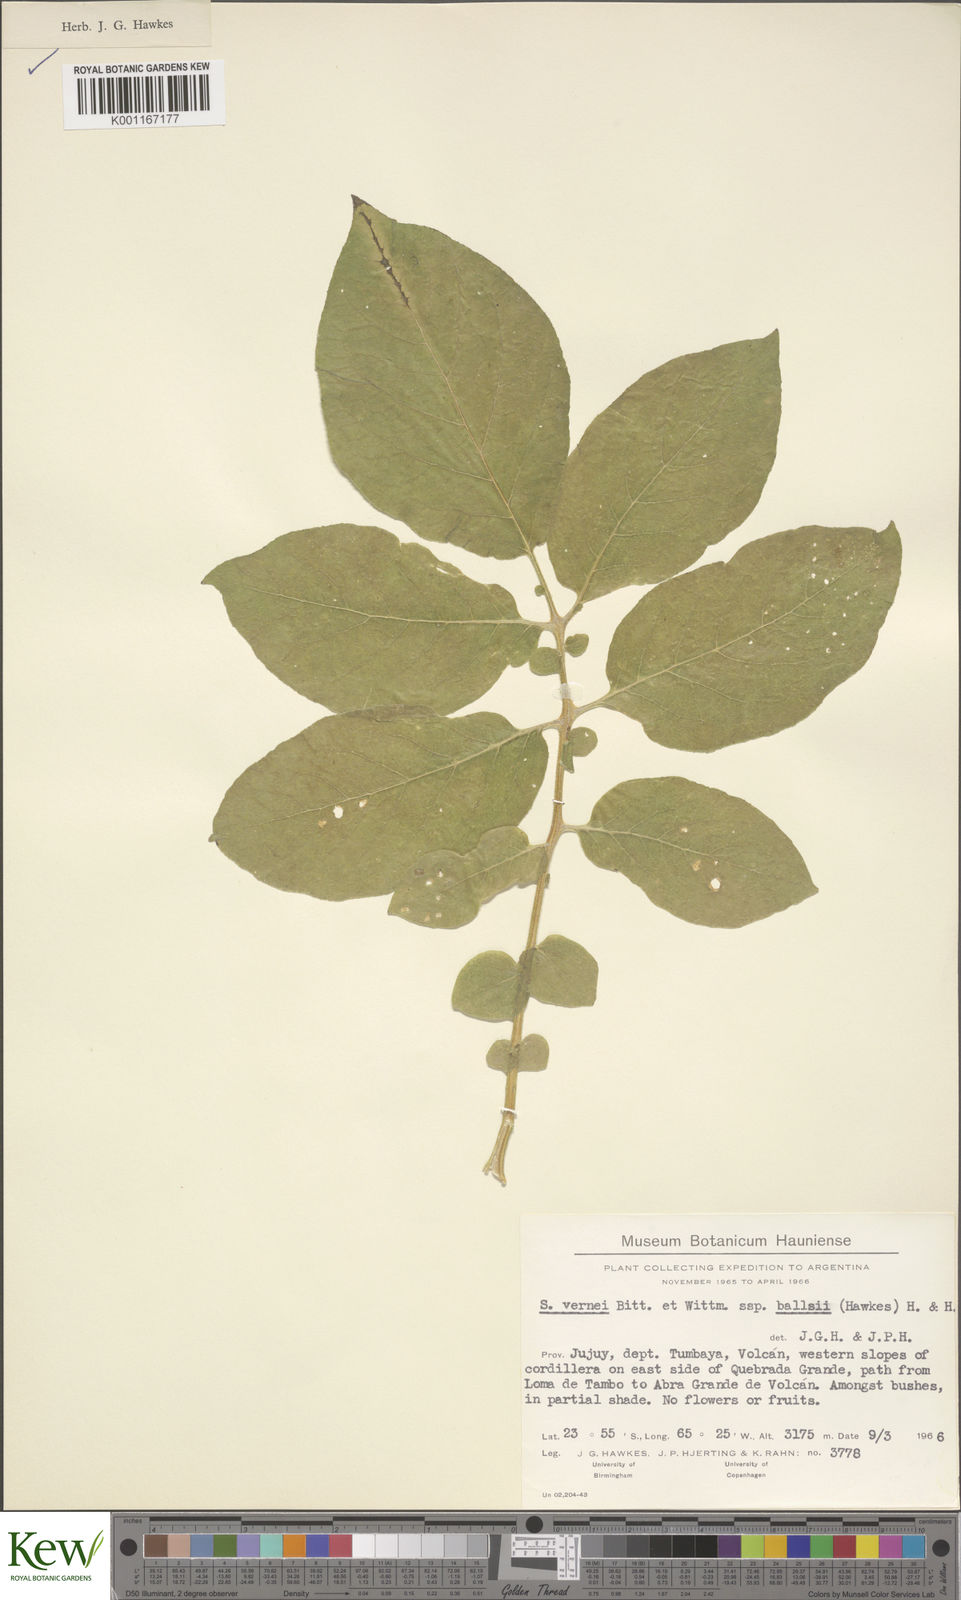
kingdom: Plantae
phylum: Tracheophyta
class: Magnoliopsida
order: Solanales
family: Solanaceae
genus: Solanum
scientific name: Solanum vernei
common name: Purple potato
